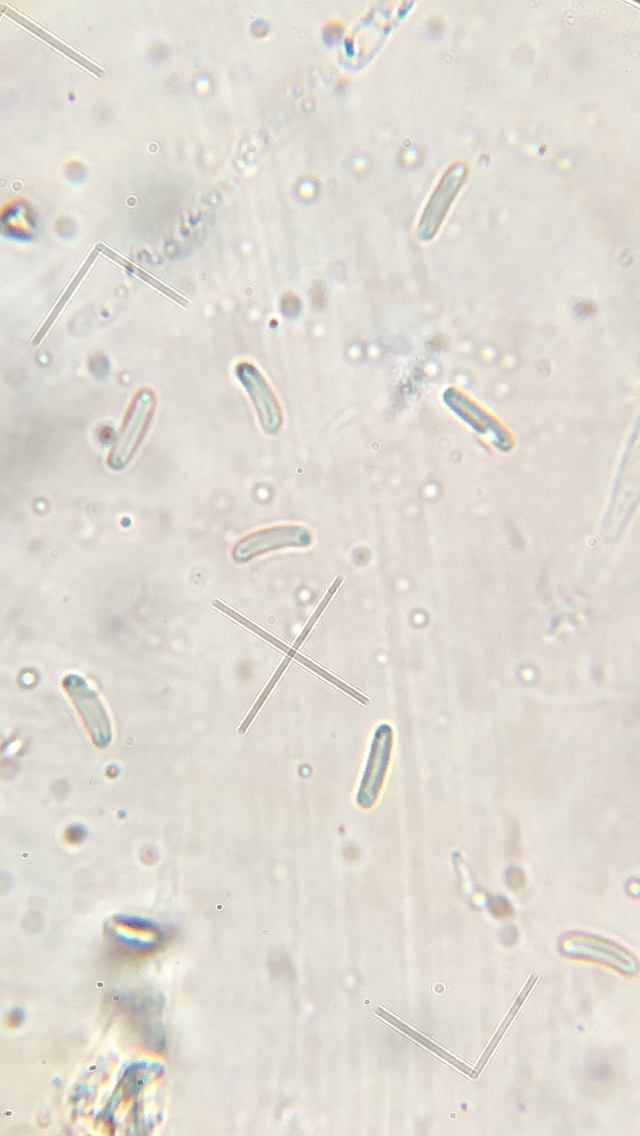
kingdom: Fungi
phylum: Ascomycota
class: Sordariomycetes
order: Xylariales
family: Diatrypaceae
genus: Eutypella
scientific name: Eutypella sorbi
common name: rønne-kulskorpe
